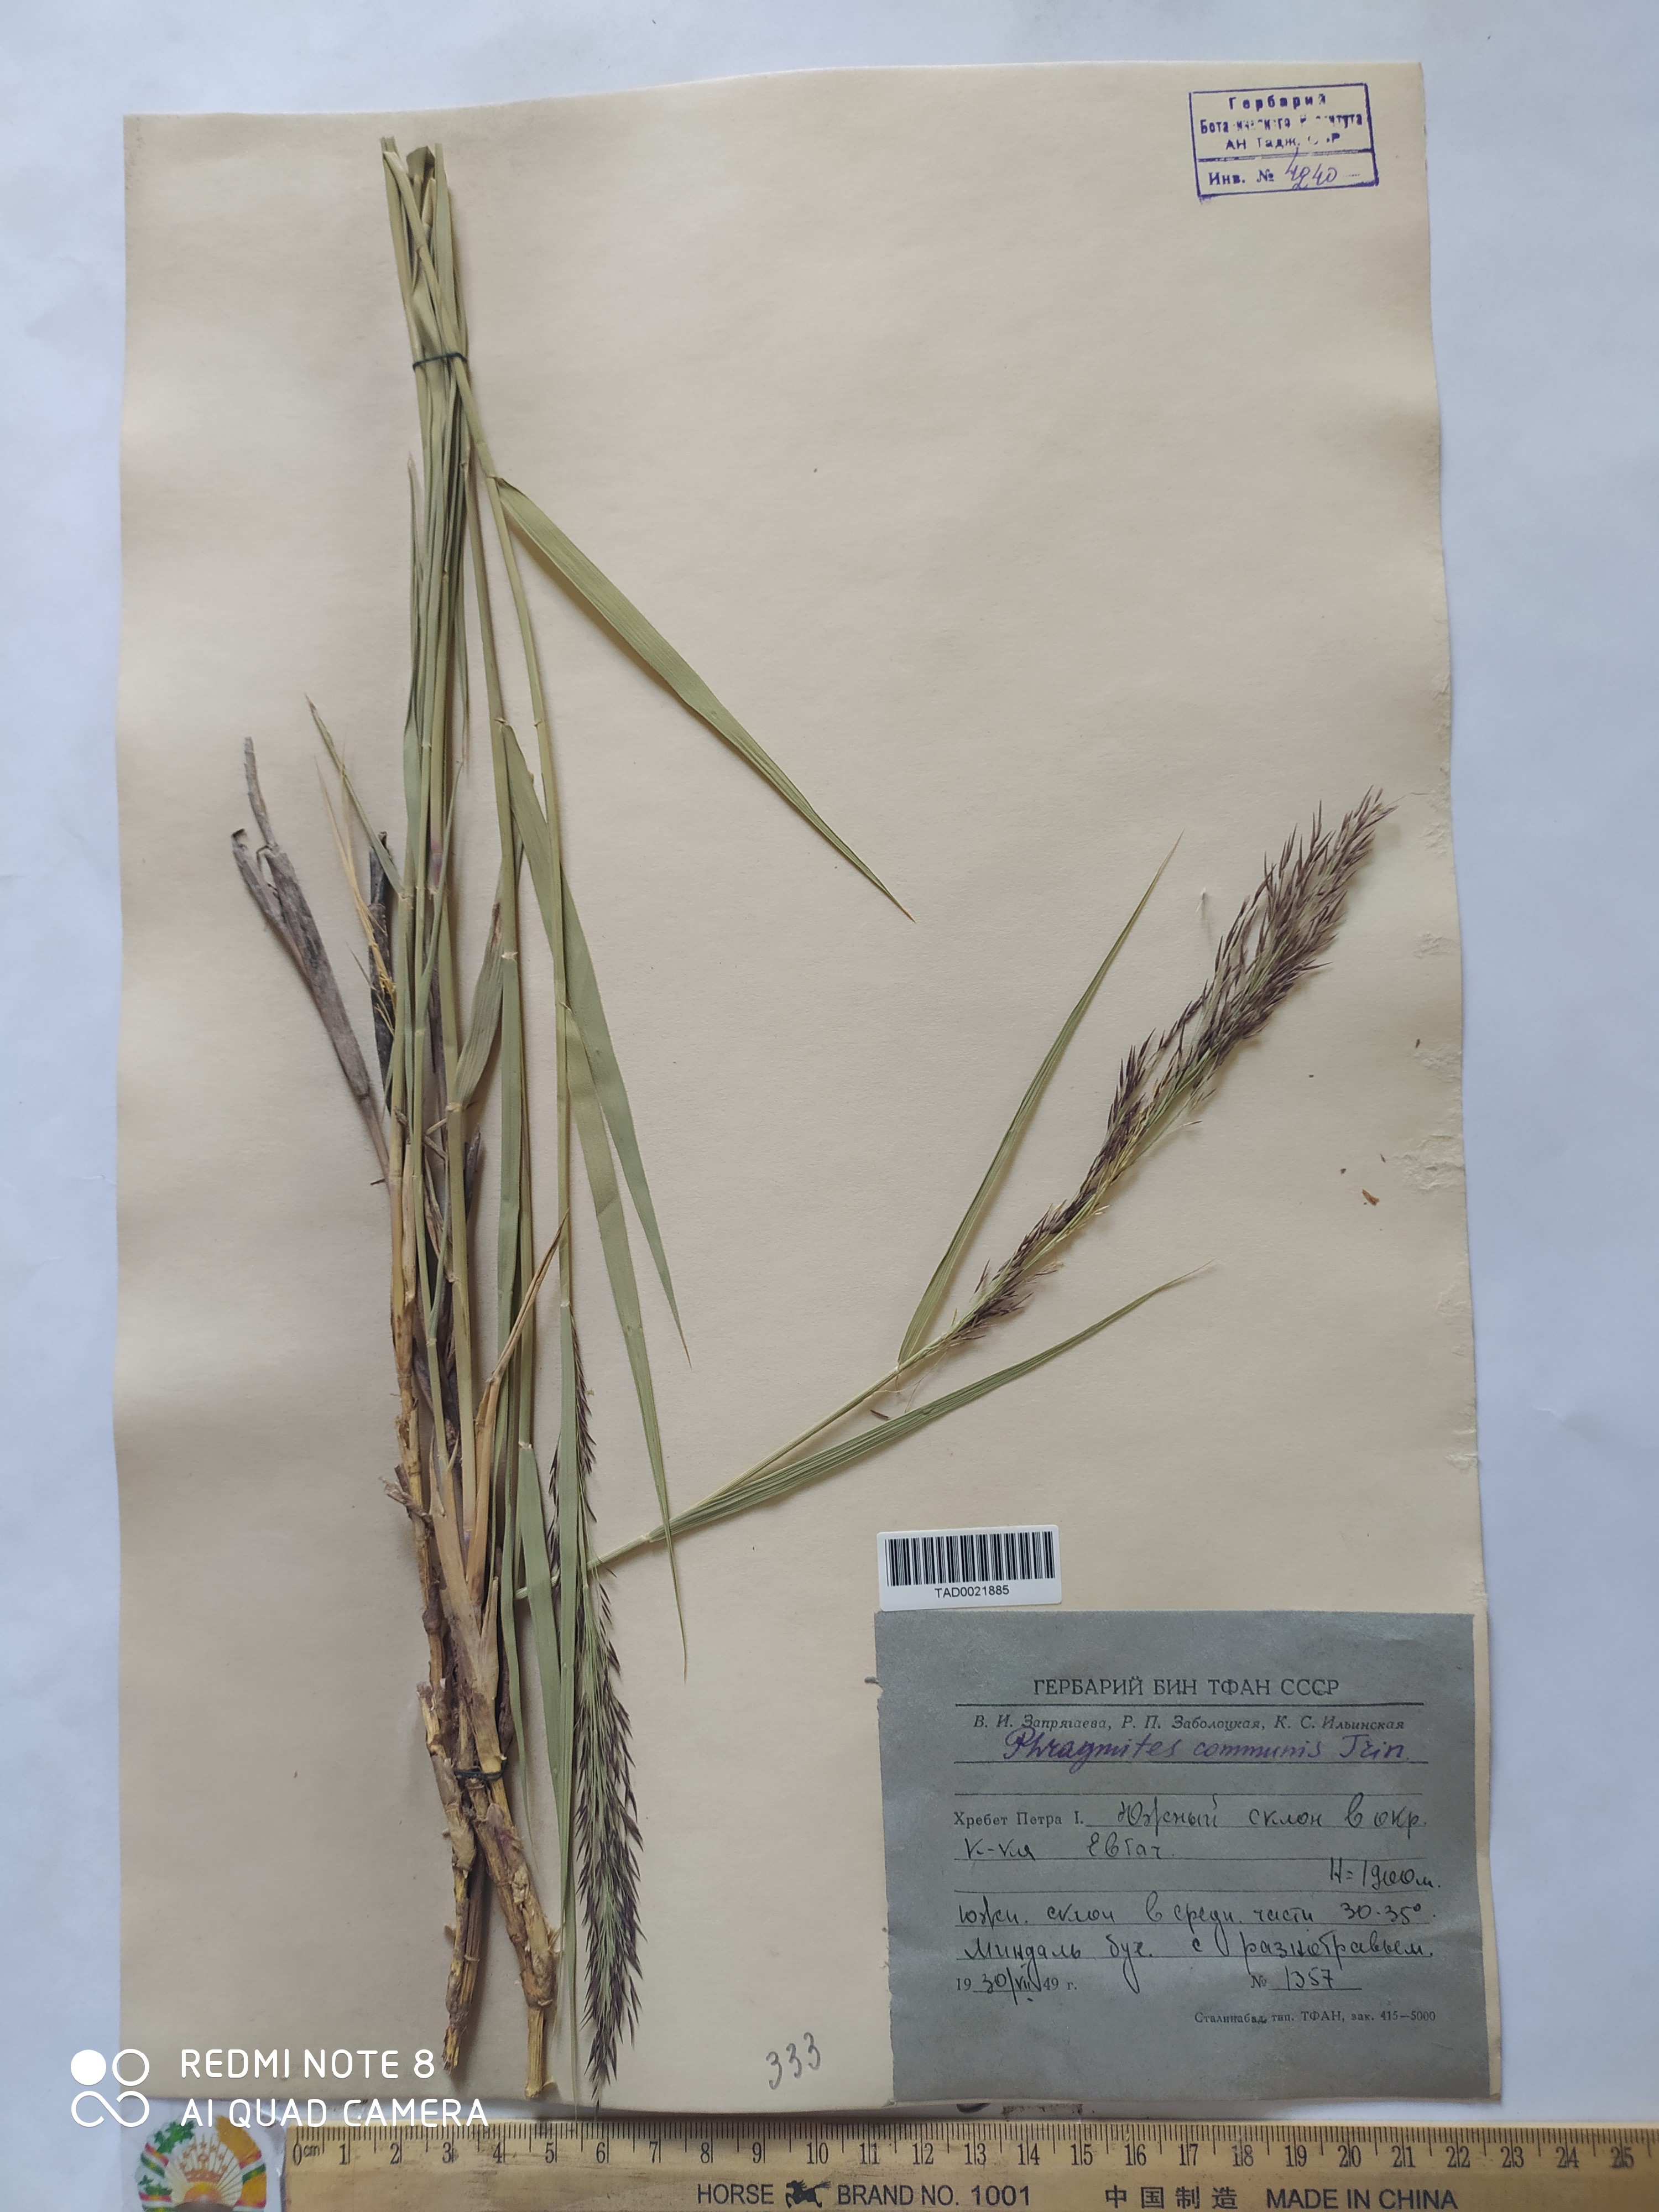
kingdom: Plantae
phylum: Tracheophyta
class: Liliopsida
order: Poales
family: Poaceae
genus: Phragmites
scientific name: Phragmites australis
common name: Common reed
